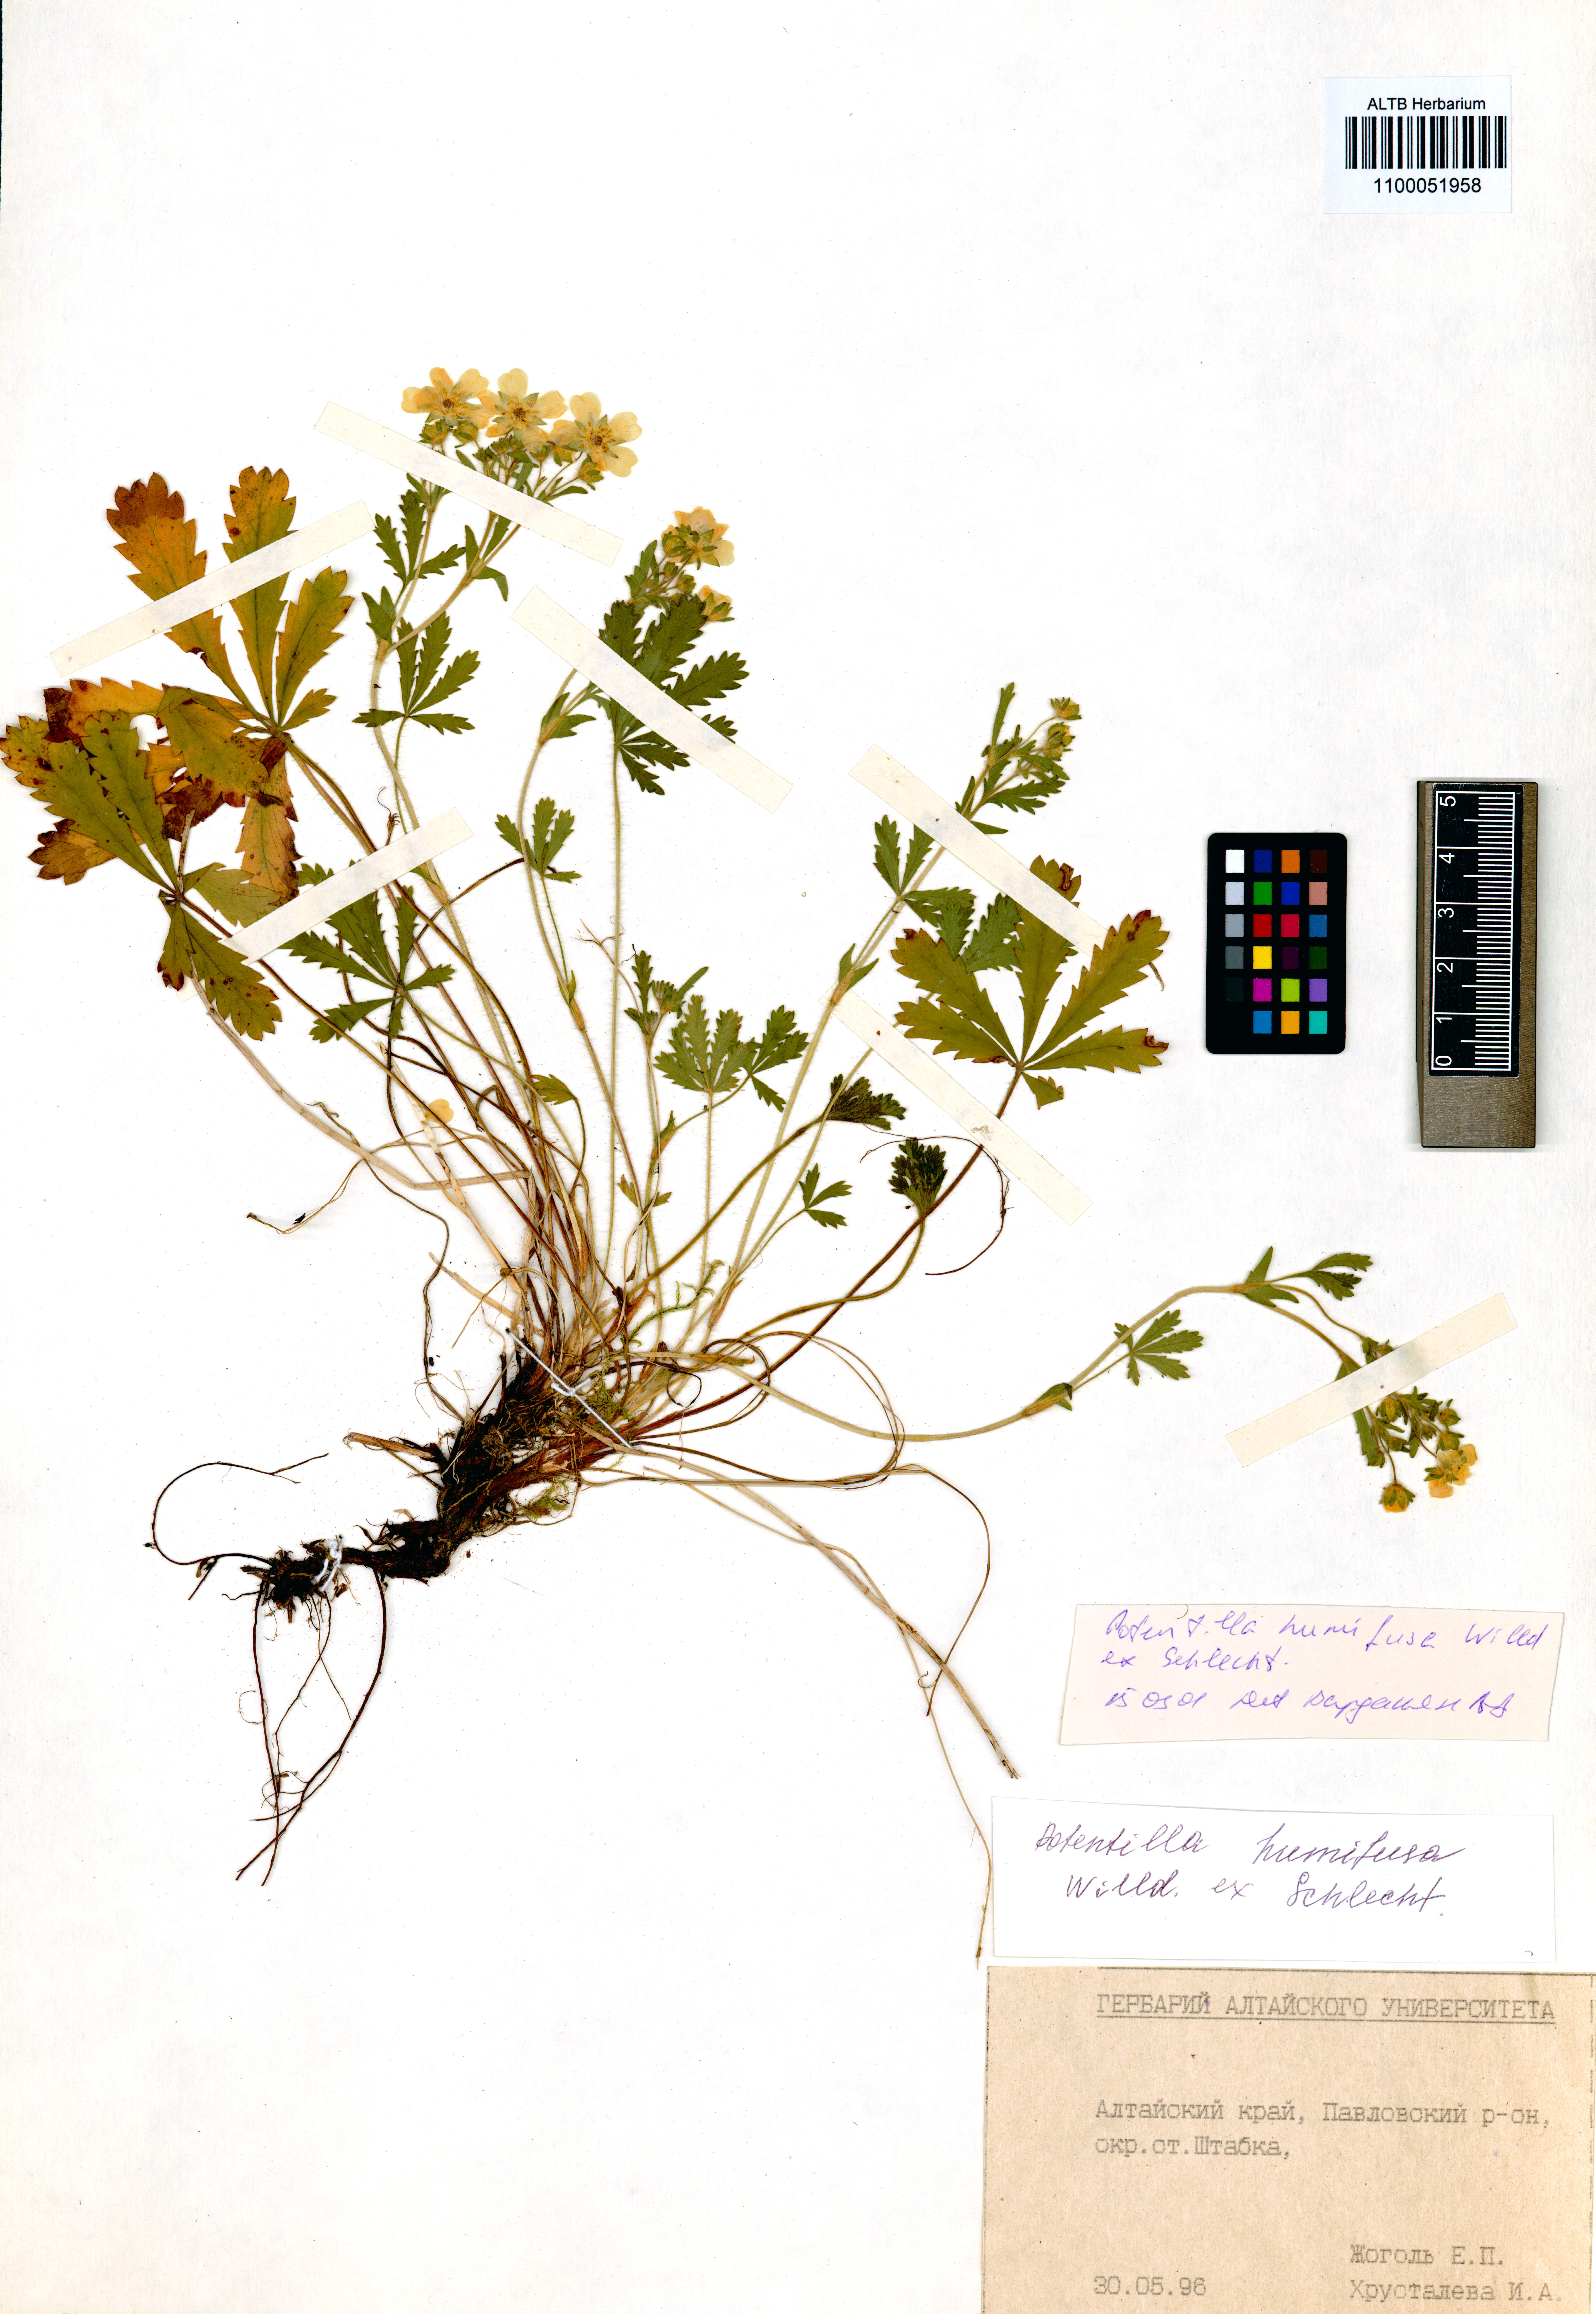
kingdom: Plantae
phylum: Tracheophyta
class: Magnoliopsida
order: Rosales
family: Rosaceae
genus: Potentilla
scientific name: Potentilla humifusa
